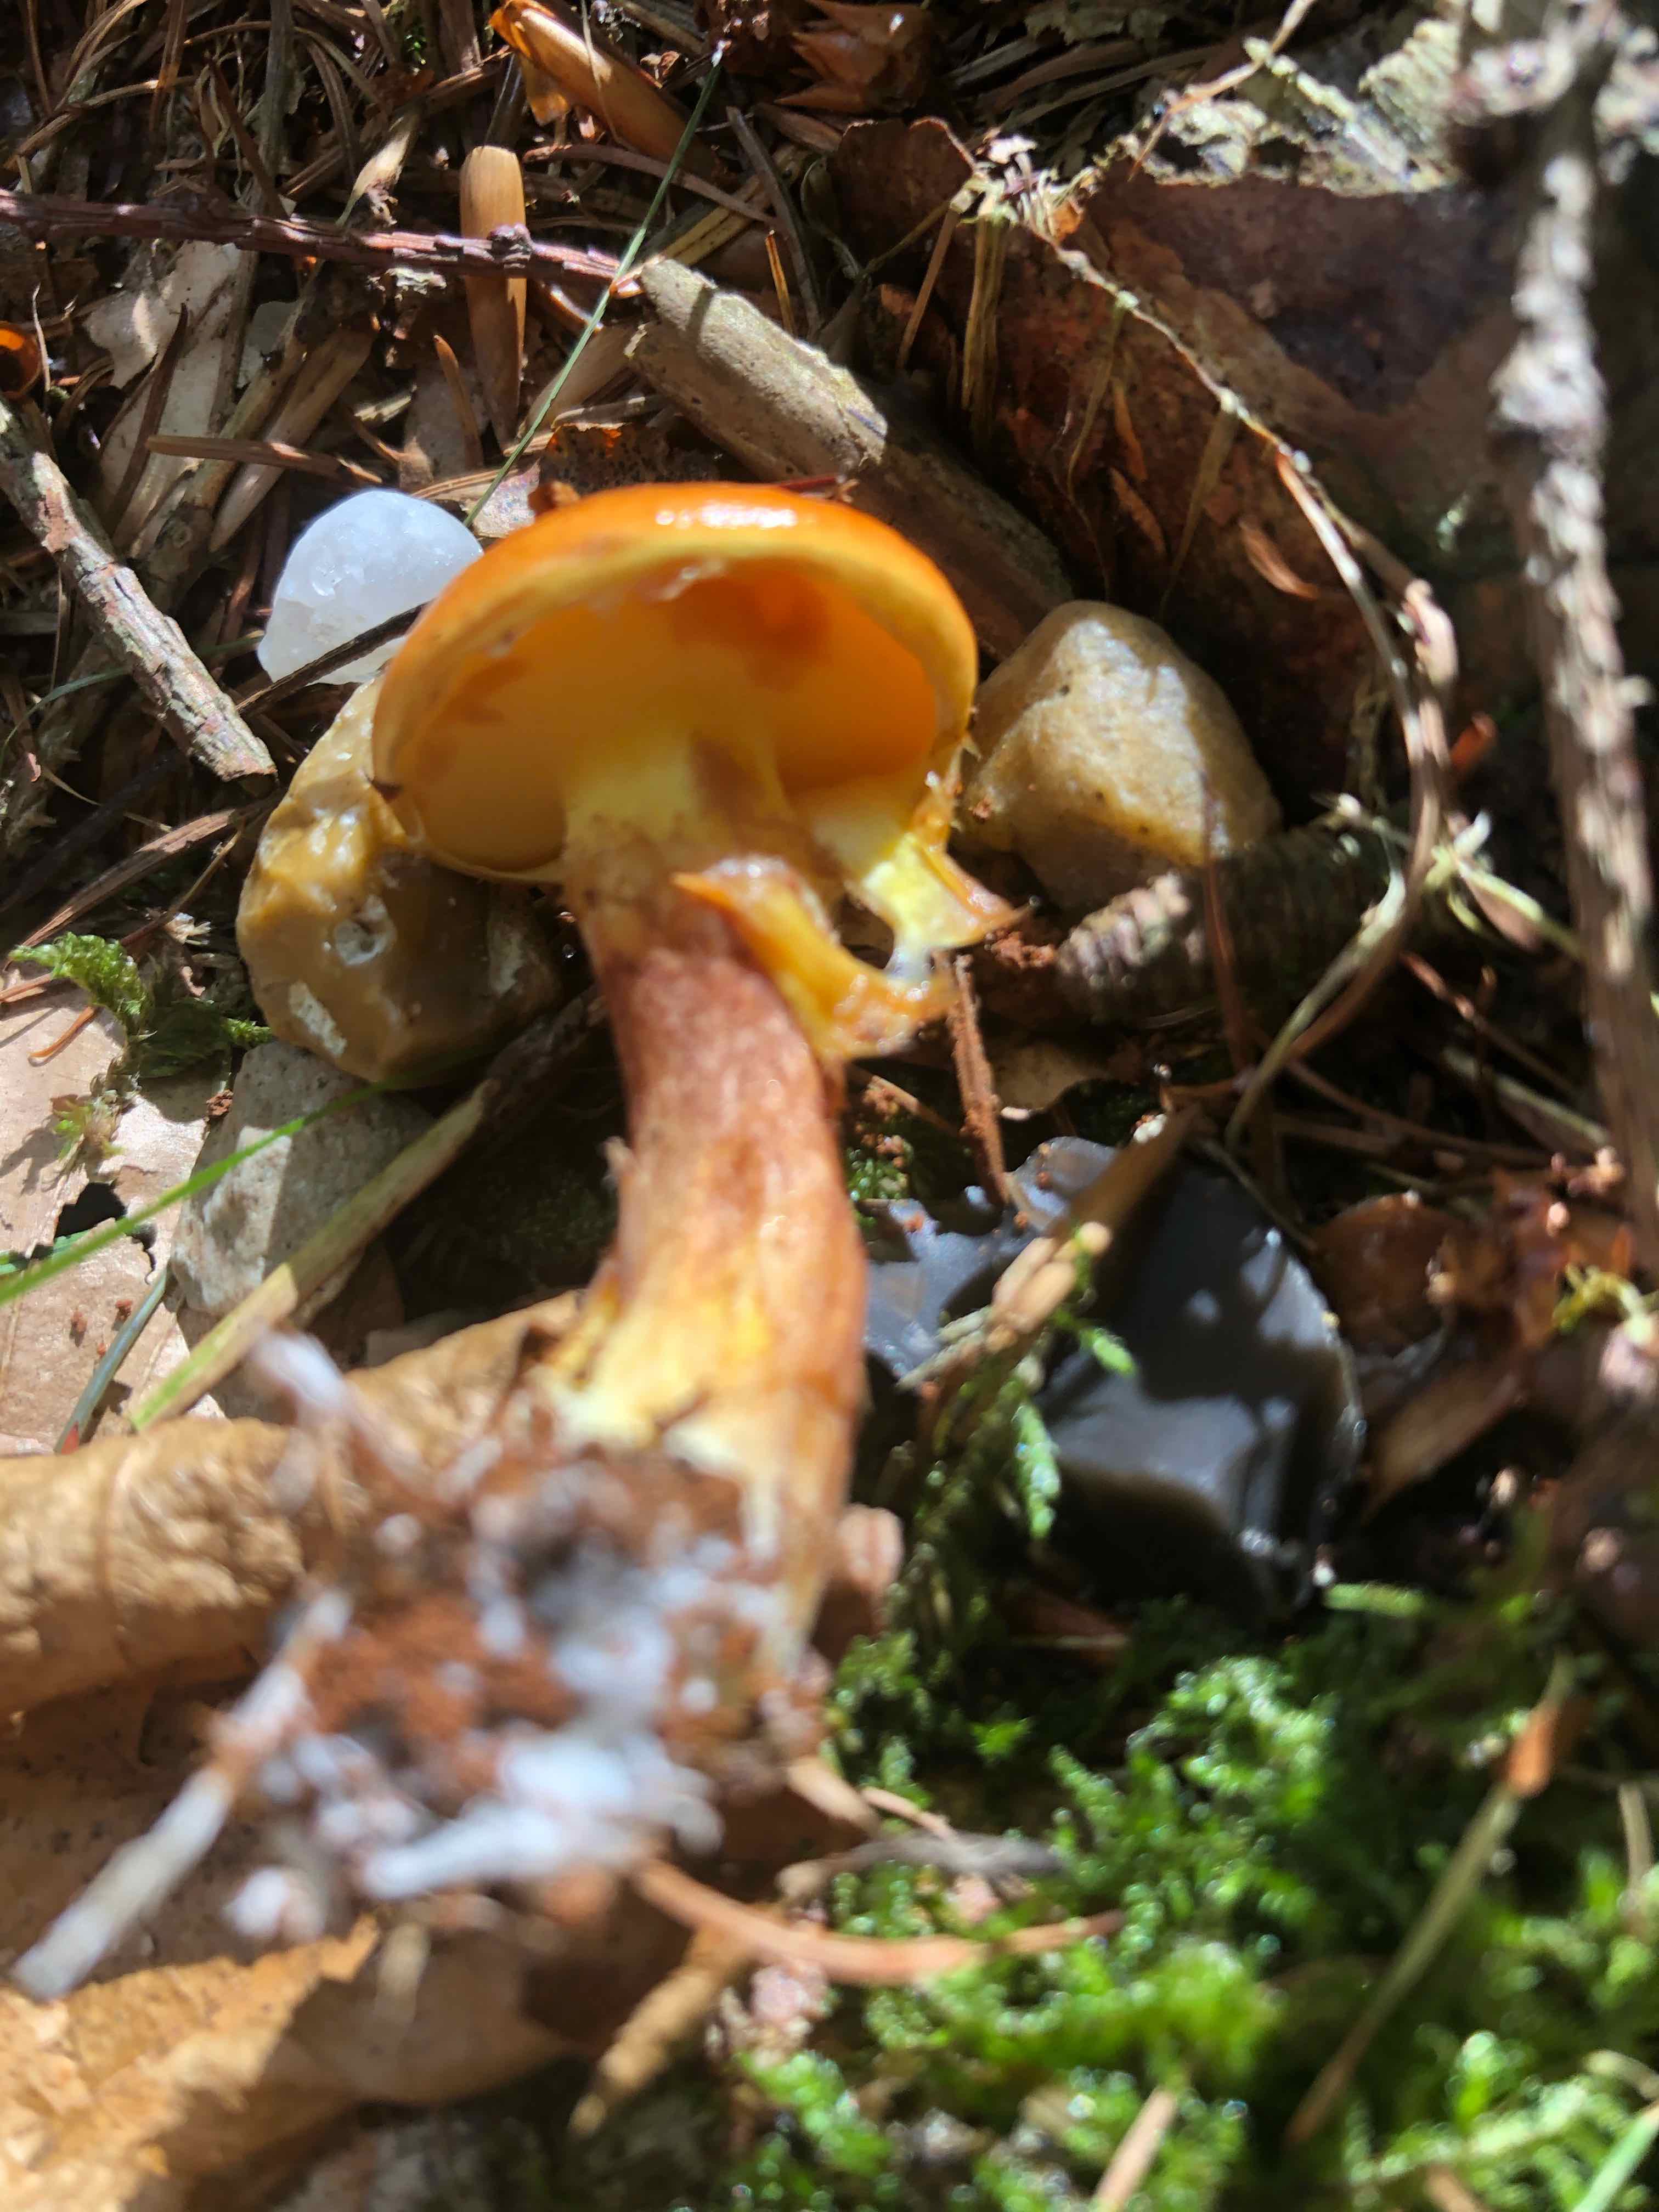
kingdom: Fungi
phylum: Basidiomycota
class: Agaricomycetes
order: Boletales
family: Suillaceae
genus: Suillus
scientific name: Suillus grevillei
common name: lærke-slimrørhat
